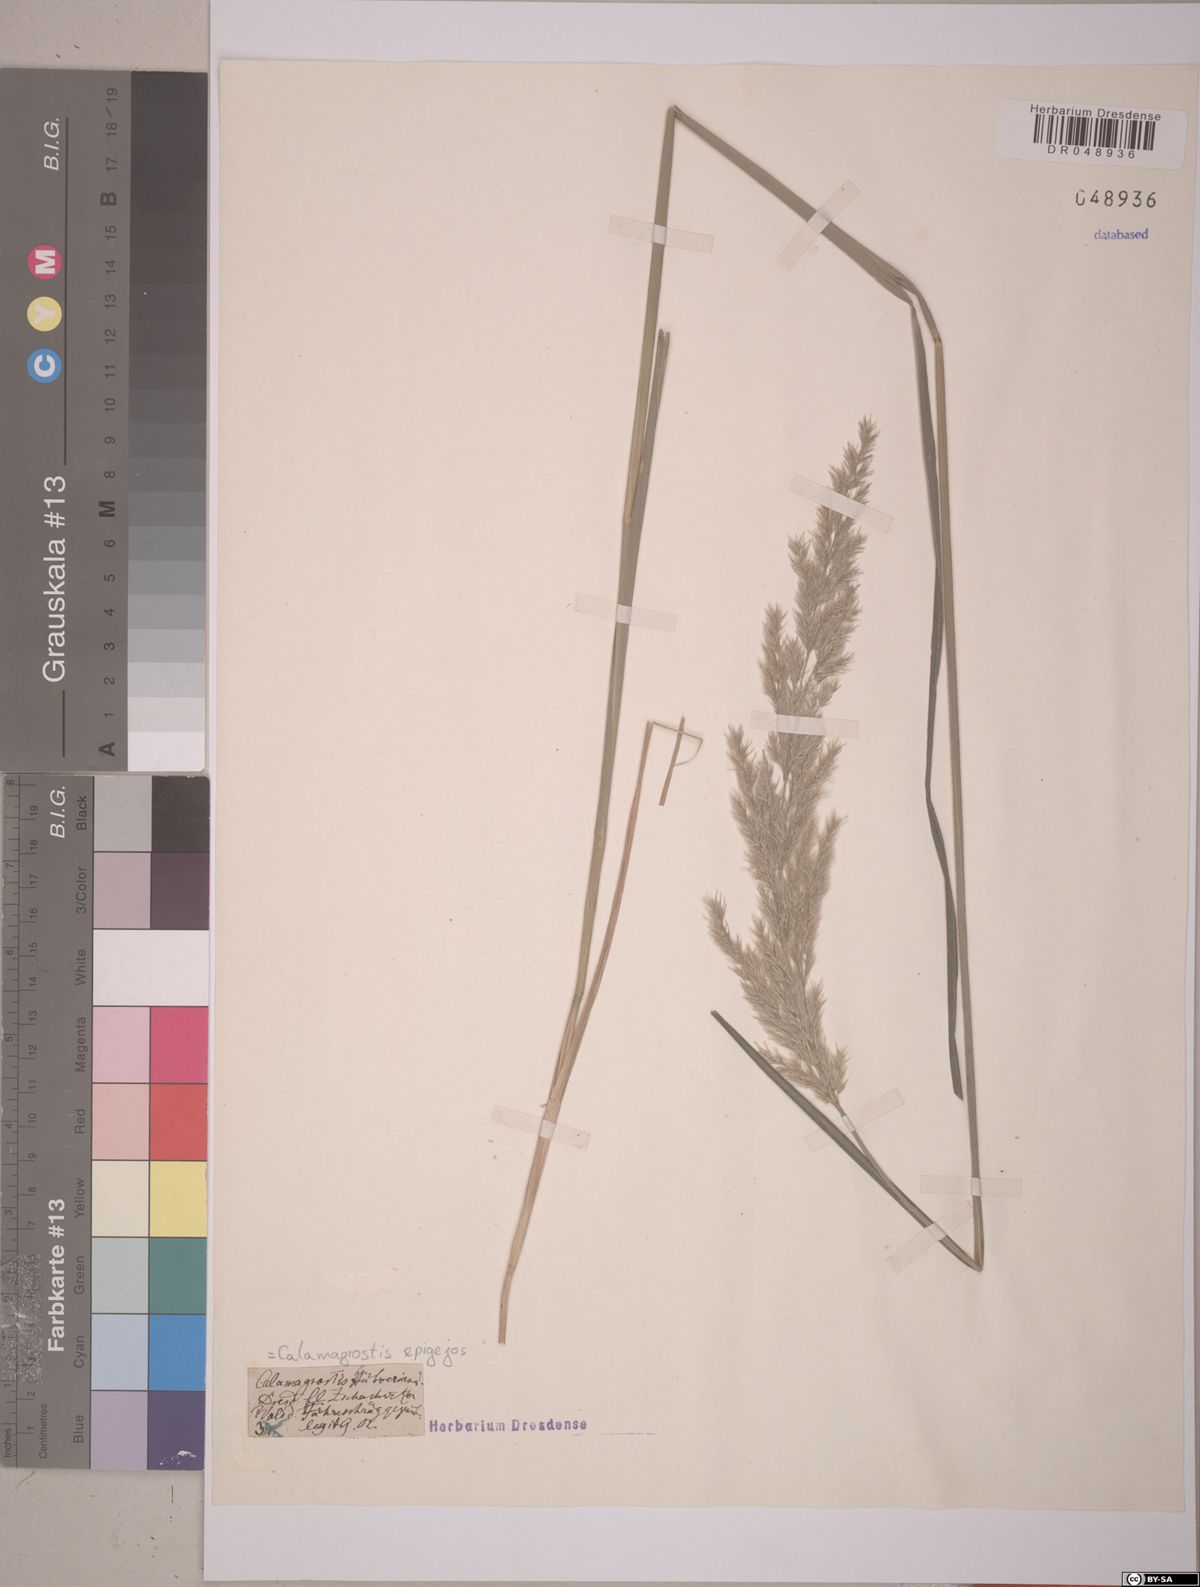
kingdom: Plantae
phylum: Tracheophyta
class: Liliopsida
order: Poales
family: Poaceae
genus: Calamagrostis
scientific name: Calamagrostis epigejos
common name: Wood small-reed
